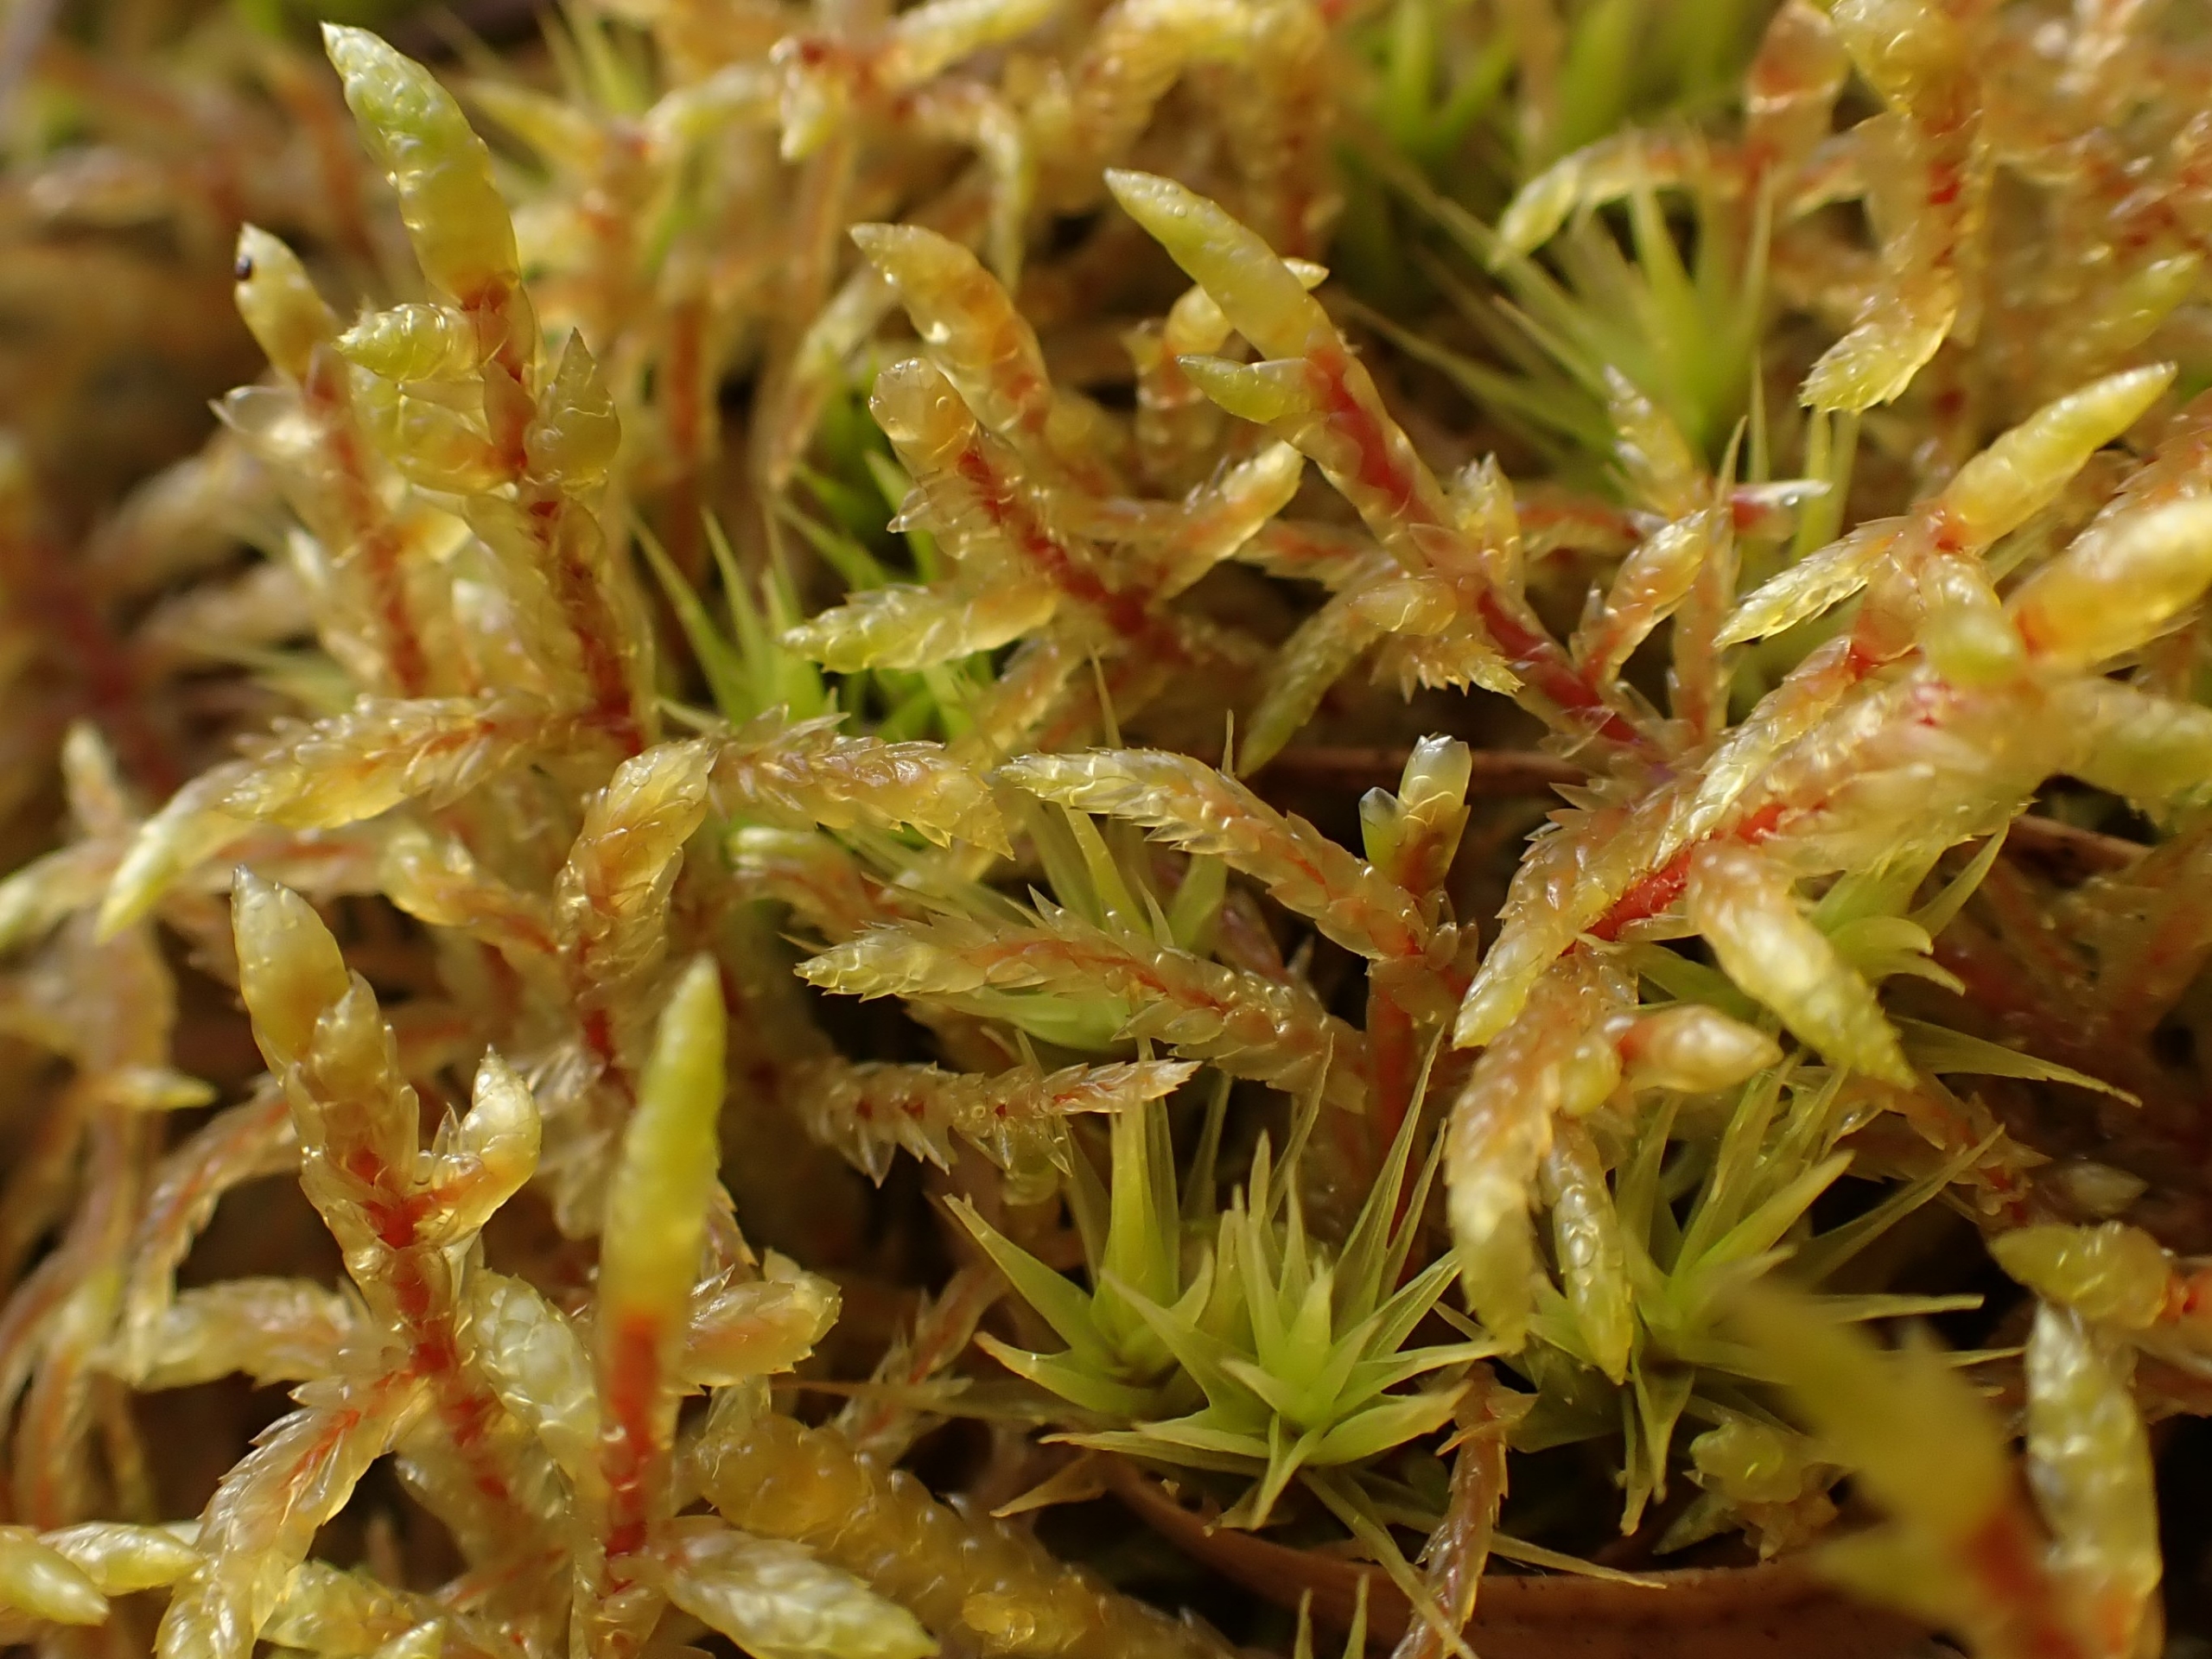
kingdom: Plantae
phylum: Bryophyta
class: Bryopsida
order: Hypnales
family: Hylocomiaceae
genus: Pleurozium
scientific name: Pleurozium schreberi
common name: Trind fyrremos
